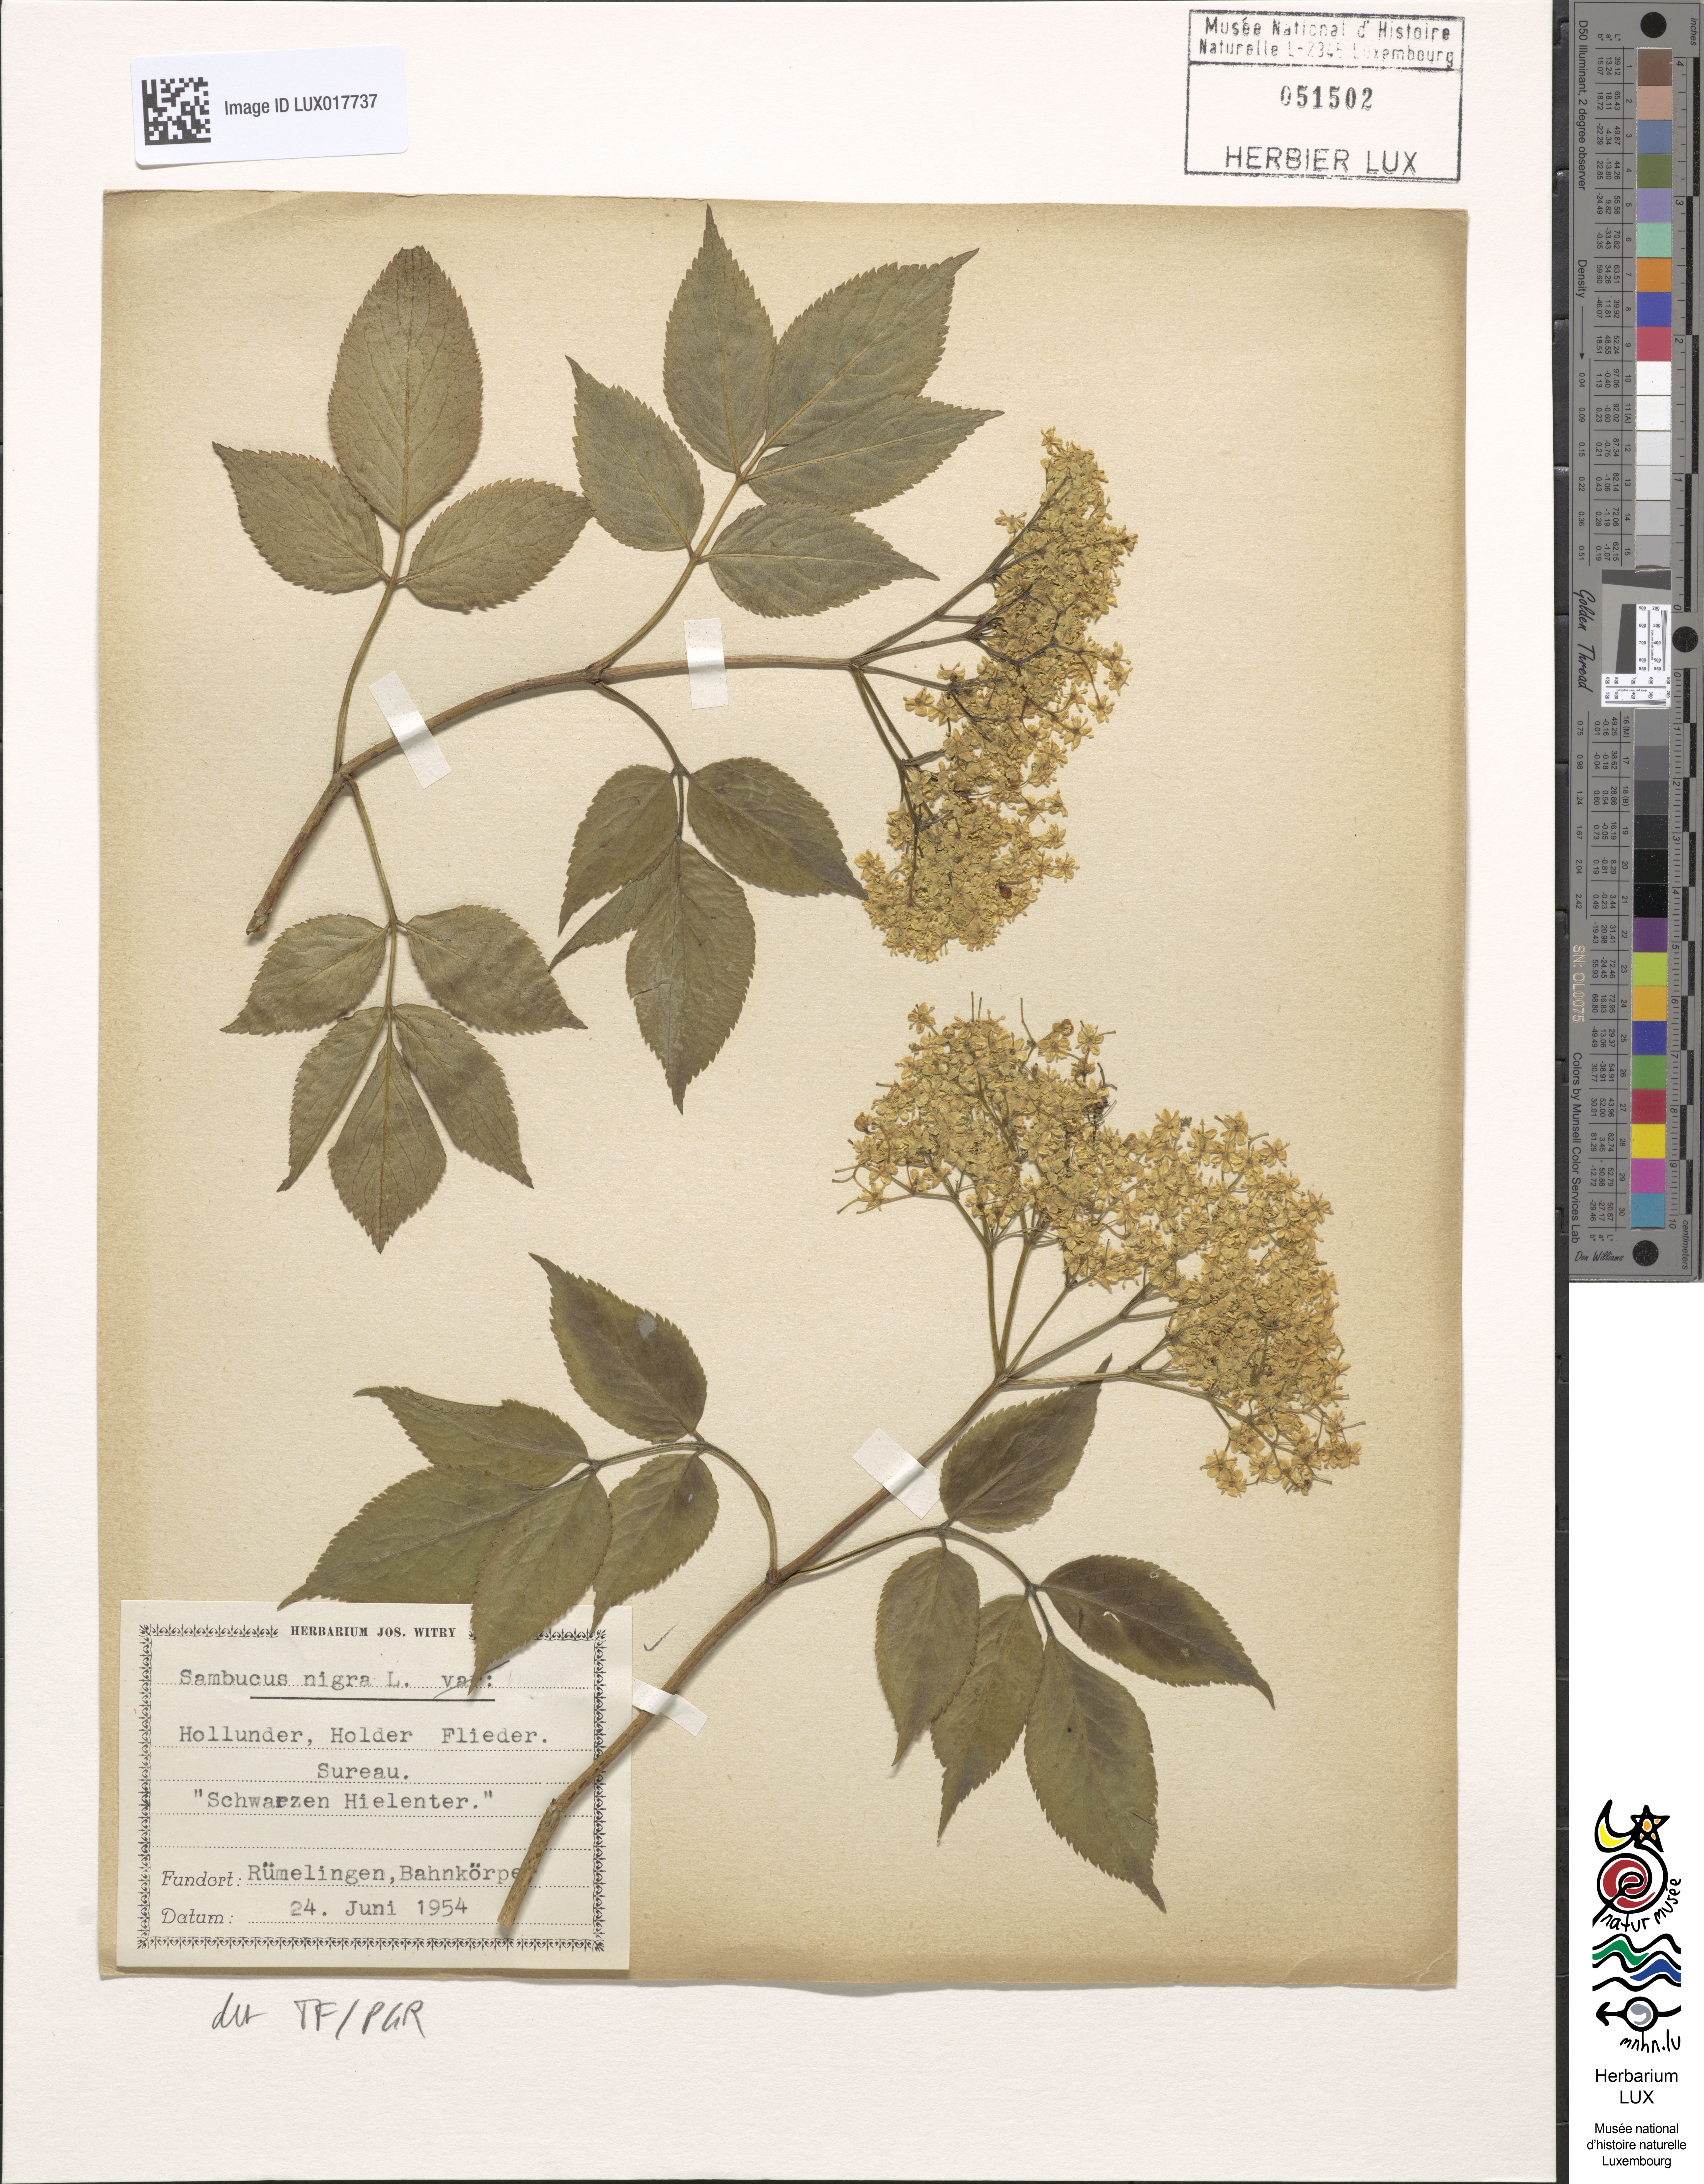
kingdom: Plantae
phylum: Tracheophyta
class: Magnoliopsida
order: Dipsacales
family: Viburnaceae
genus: Sambucus
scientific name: Sambucus nigra
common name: Elder
